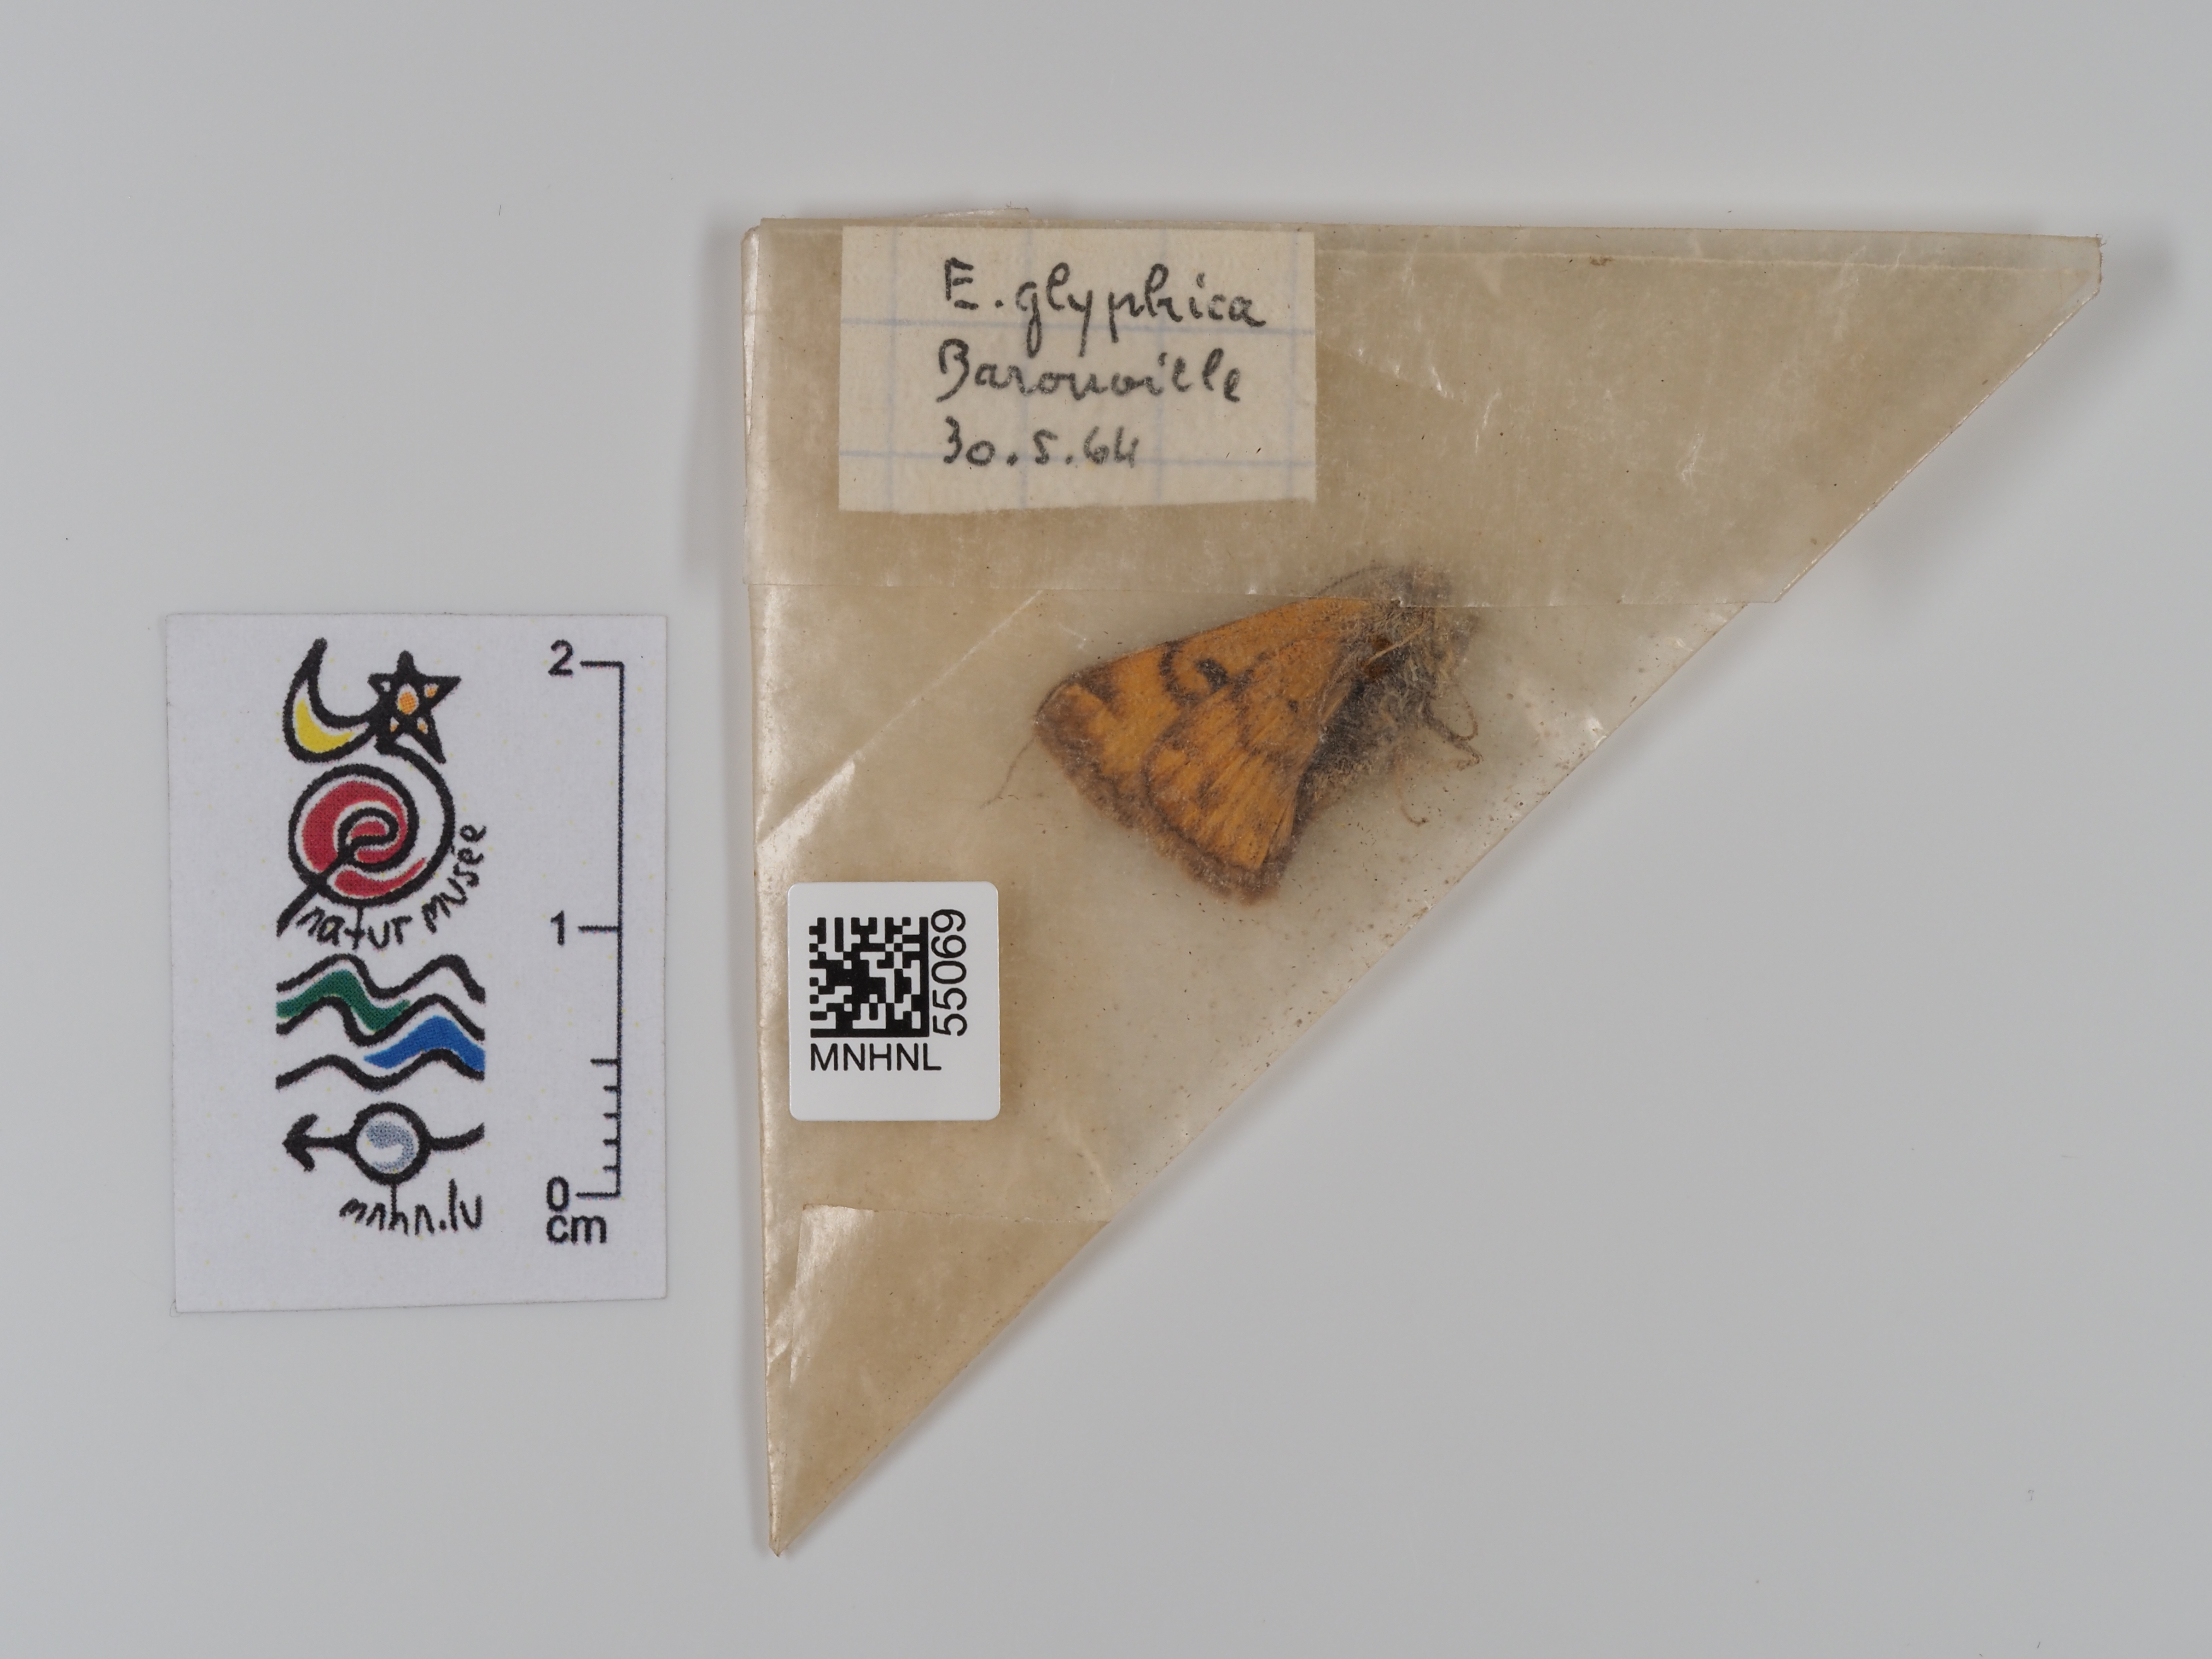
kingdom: Animalia
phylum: Arthropoda
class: Insecta
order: Lepidoptera
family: Erebidae
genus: Euclidia
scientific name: Euclidia glyphica
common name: Burnet companion
